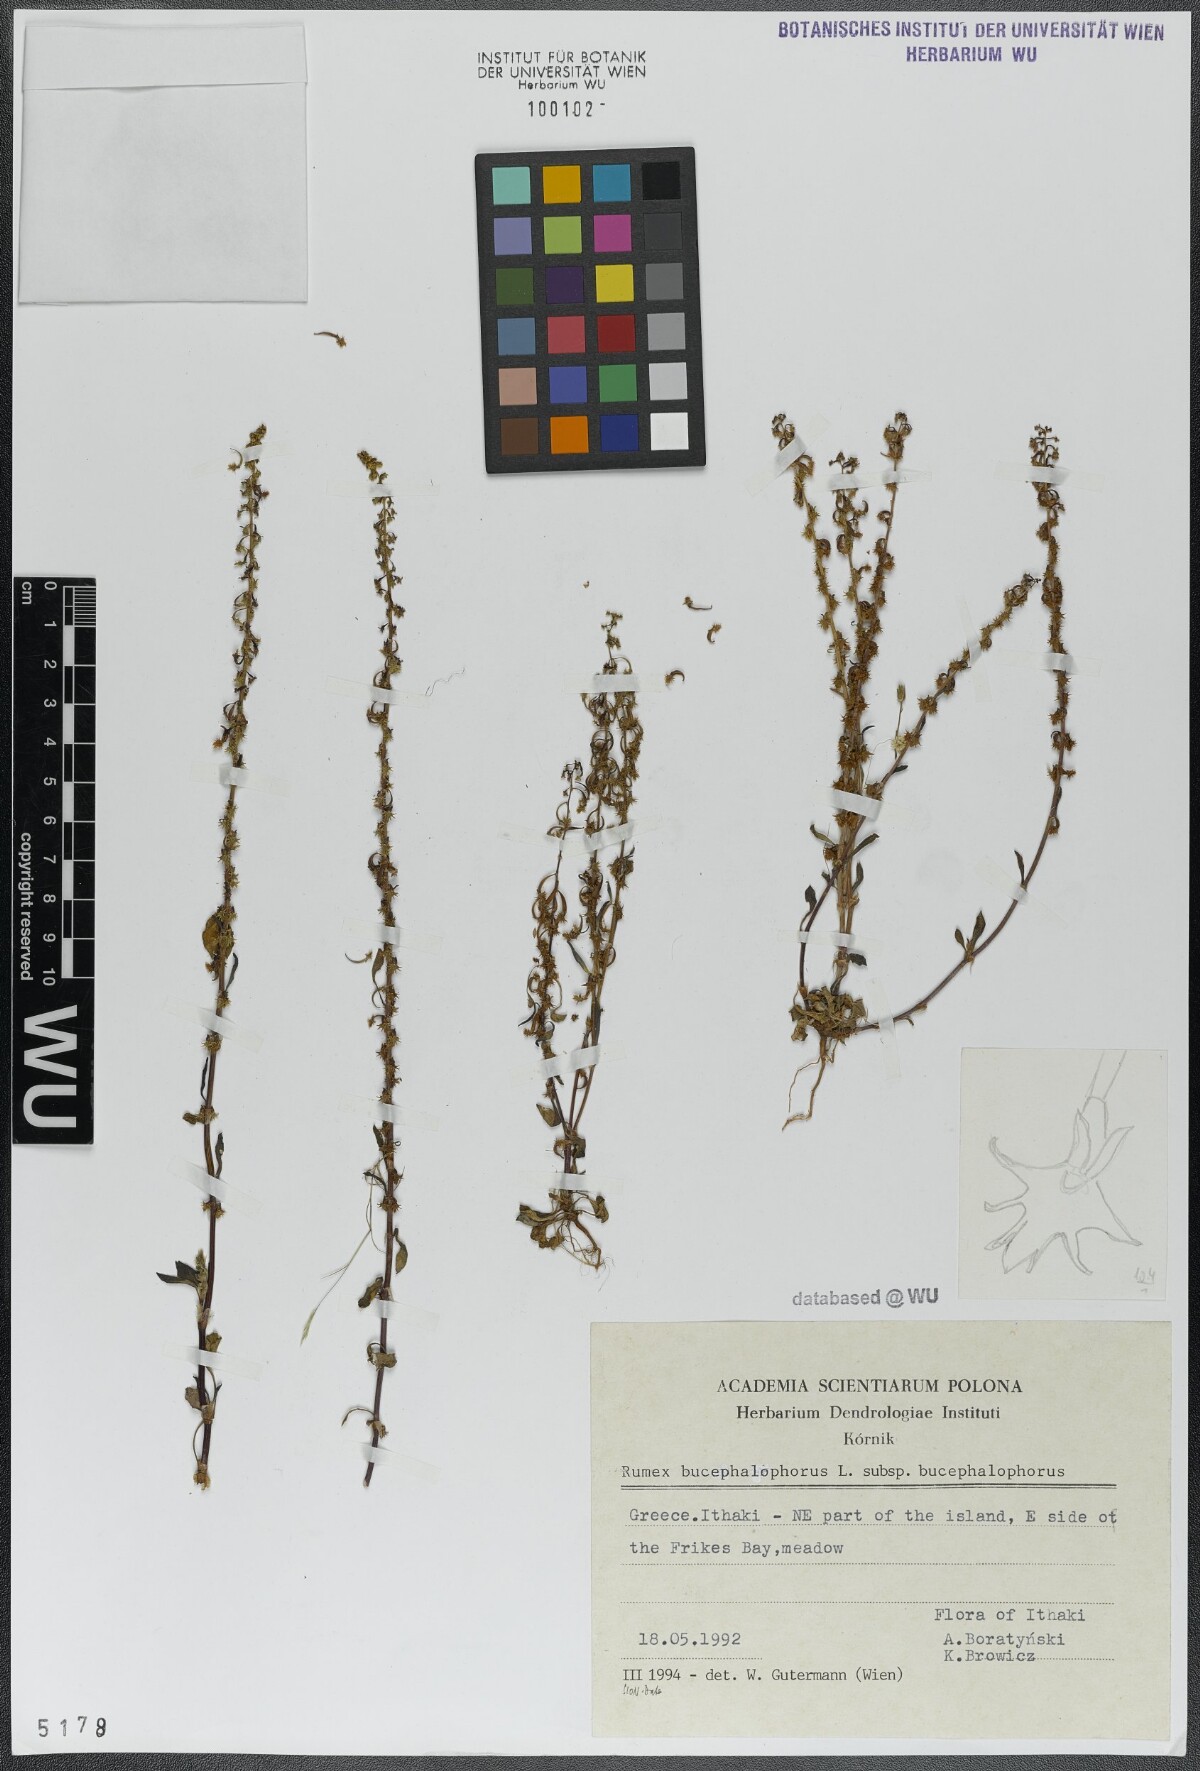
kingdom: Plantae
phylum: Tracheophyta
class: Magnoliopsida
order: Caryophyllales
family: Polygonaceae
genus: Rumex
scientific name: Rumex bucephalophorus
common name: Red dock
